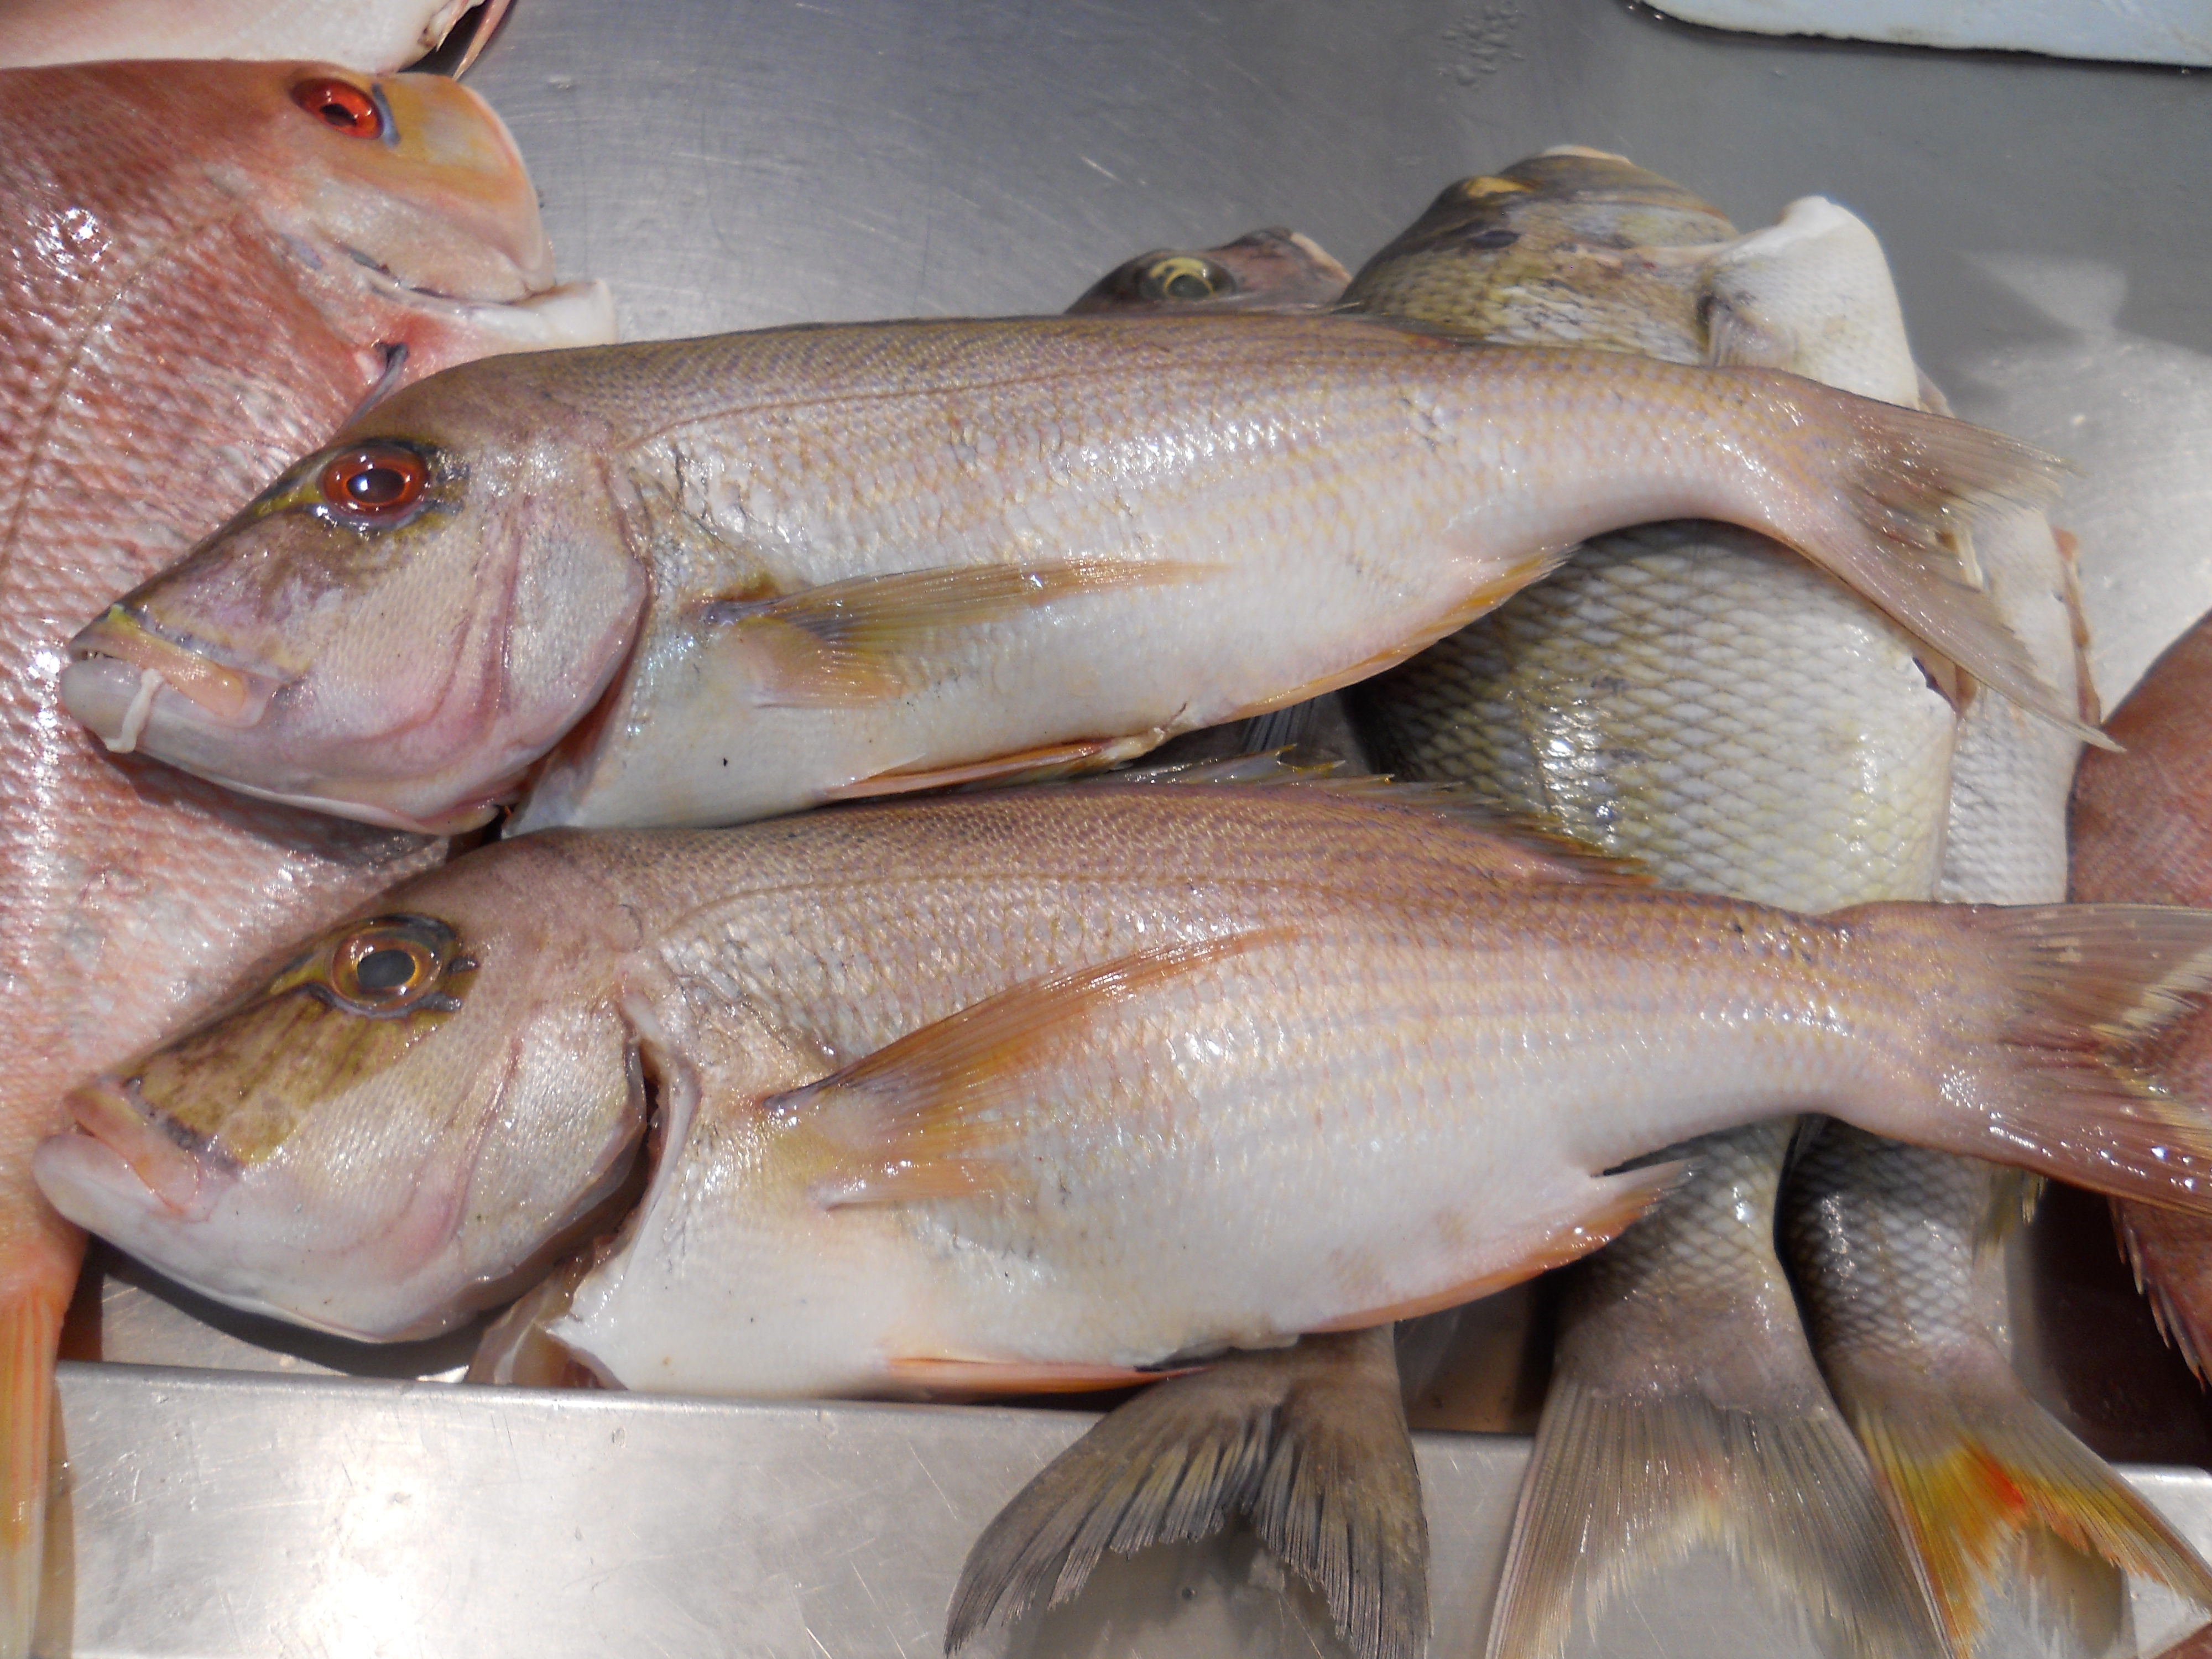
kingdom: Animalia
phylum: Chordata
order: Perciformes
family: Sparidae
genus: Polysteganus
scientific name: Polysteganus praeorbitalis
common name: Scotsman
